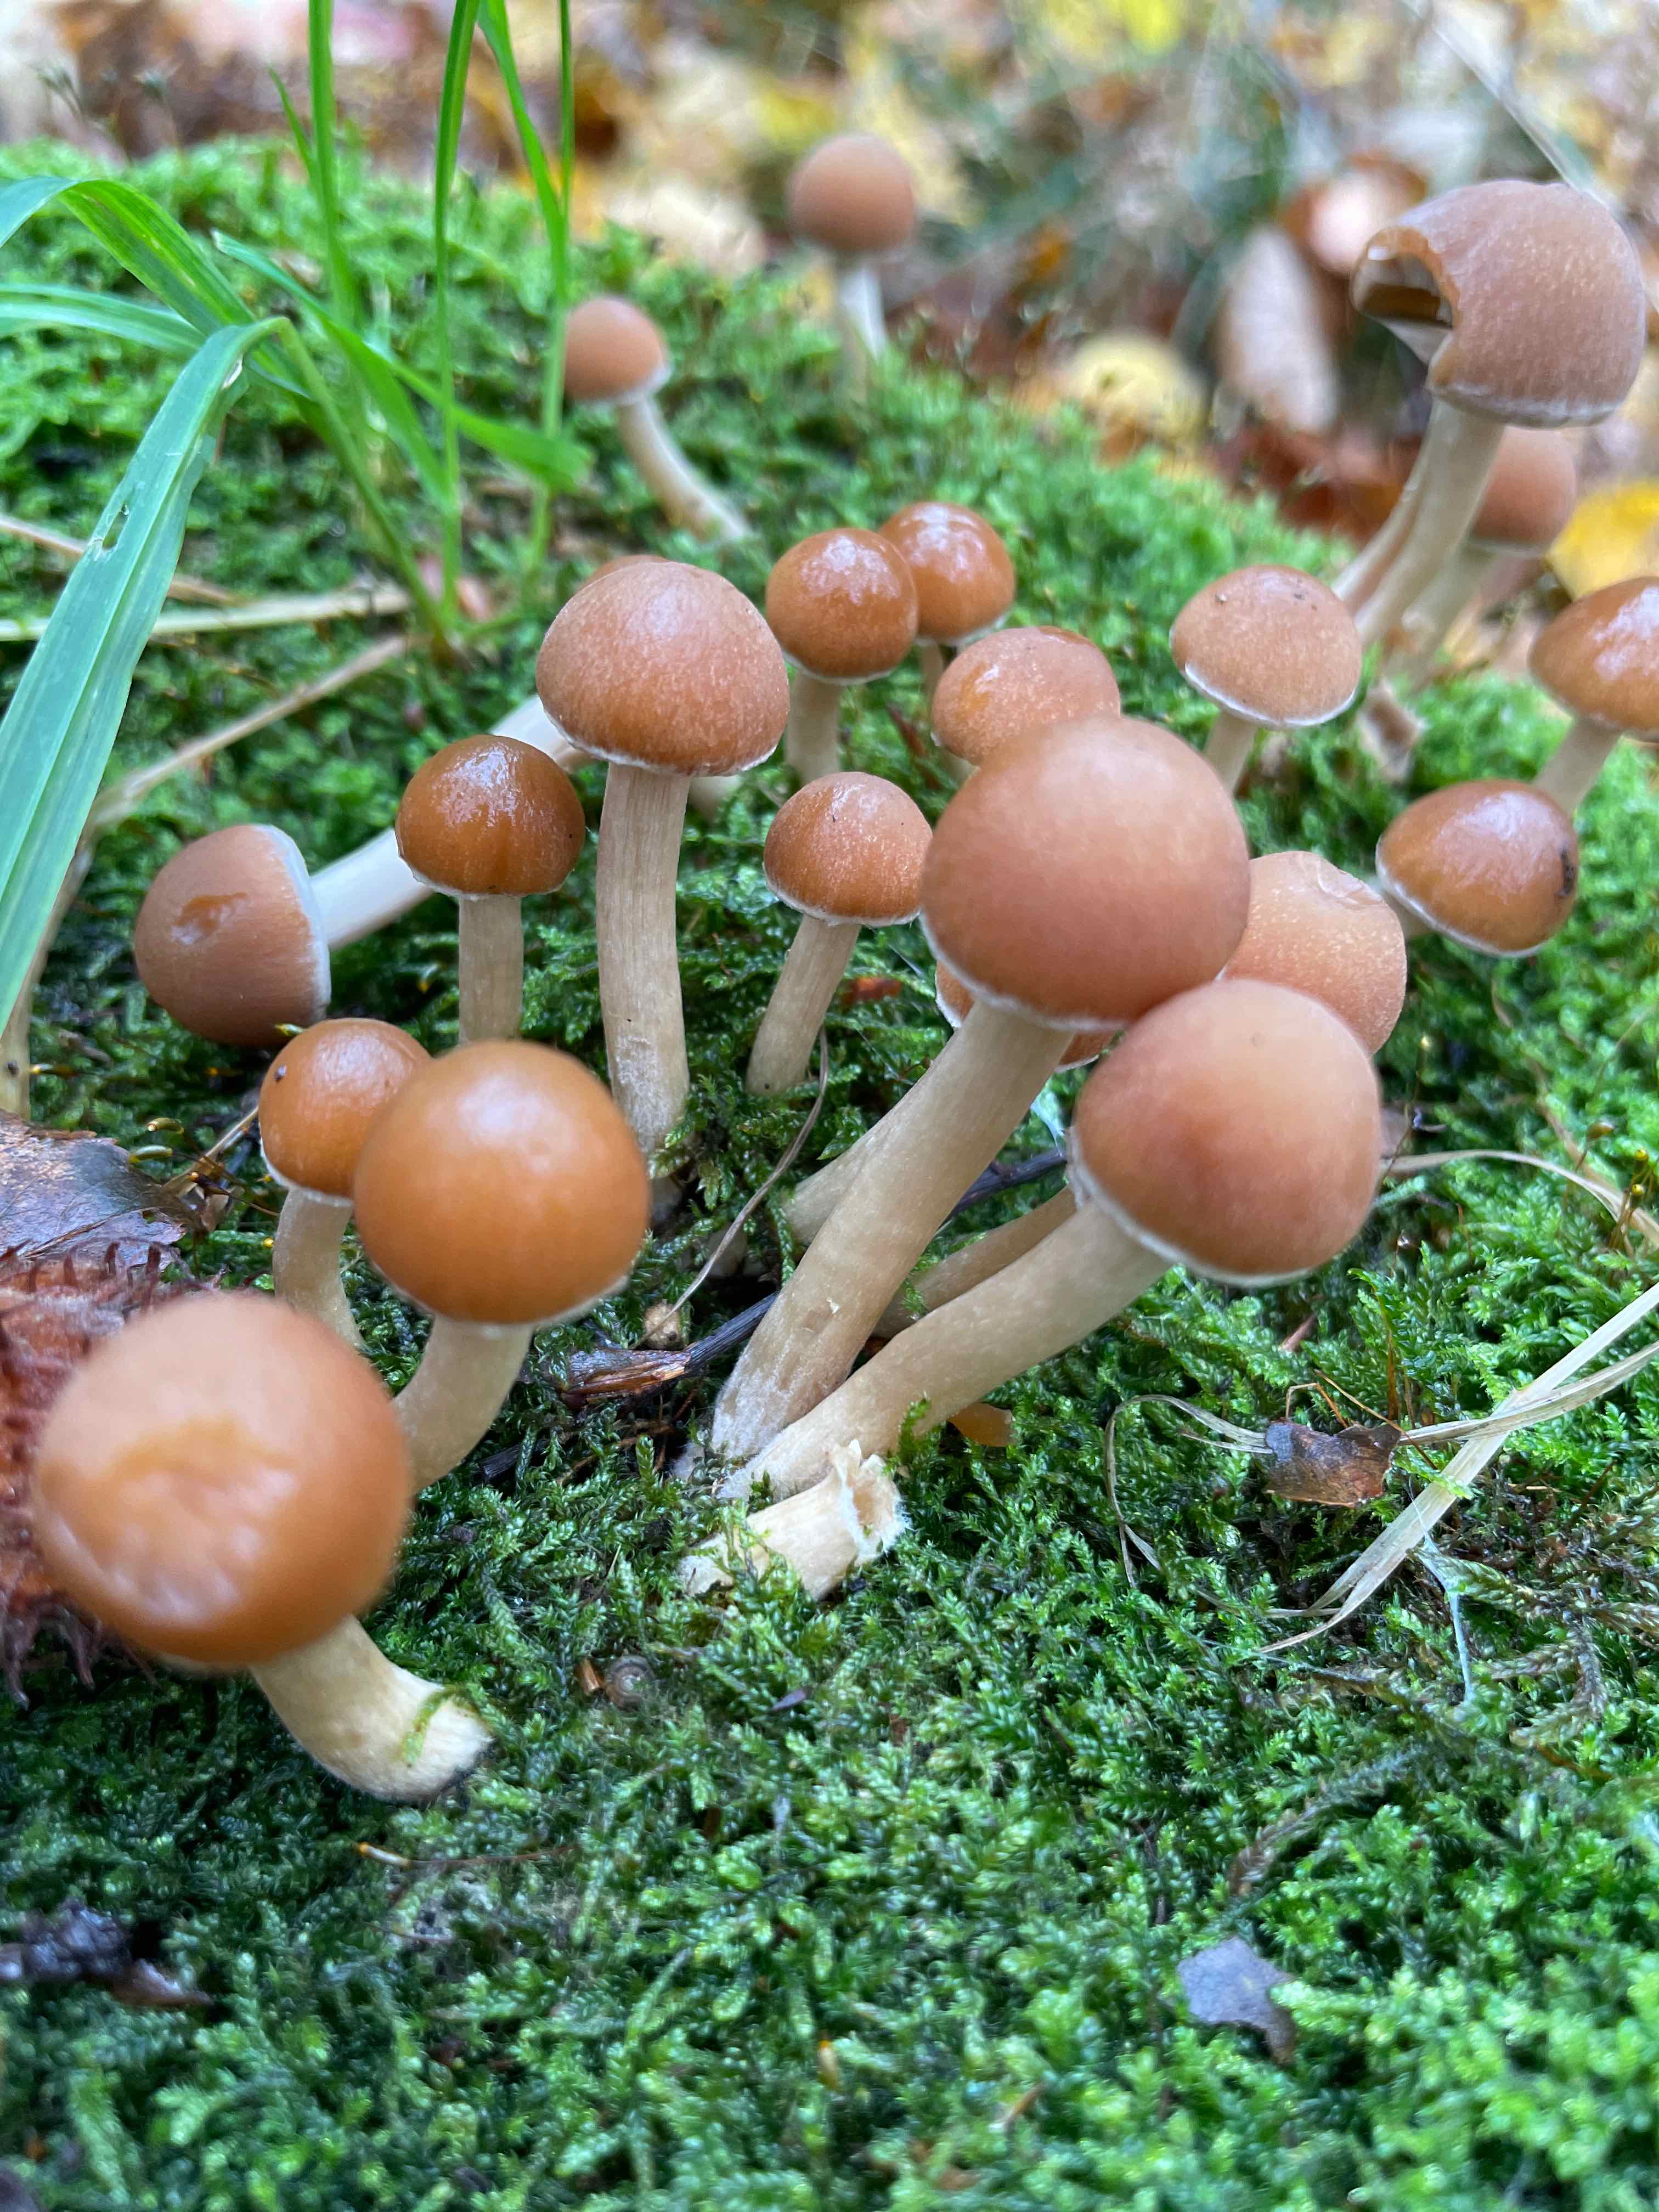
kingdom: Fungi
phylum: Basidiomycota
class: Agaricomycetes
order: Agaricales
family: Psathyrellaceae
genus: Psathyrella
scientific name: Psathyrella piluliformis
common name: lysstokket mørkhat
